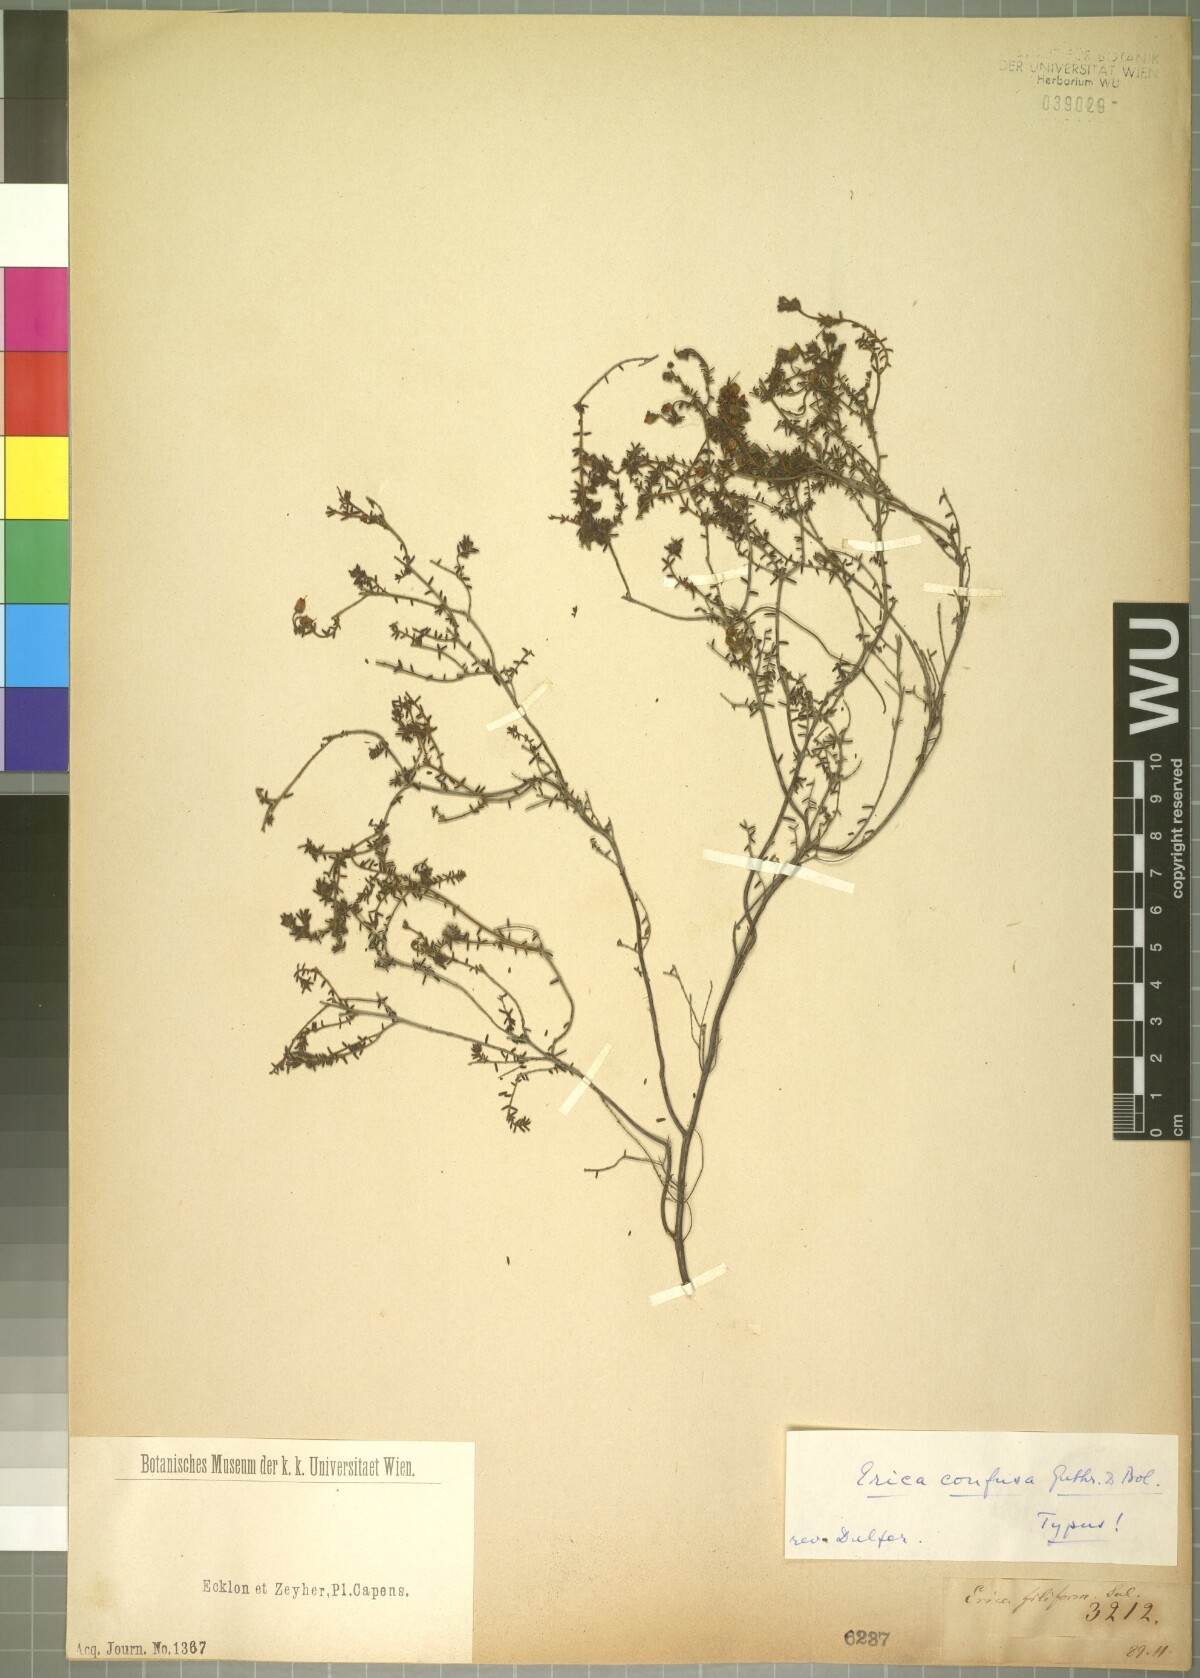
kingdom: Plantae
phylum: Tracheophyta
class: Magnoliopsida
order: Ericales
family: Ericaceae
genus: Erica
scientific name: Erica permutata
